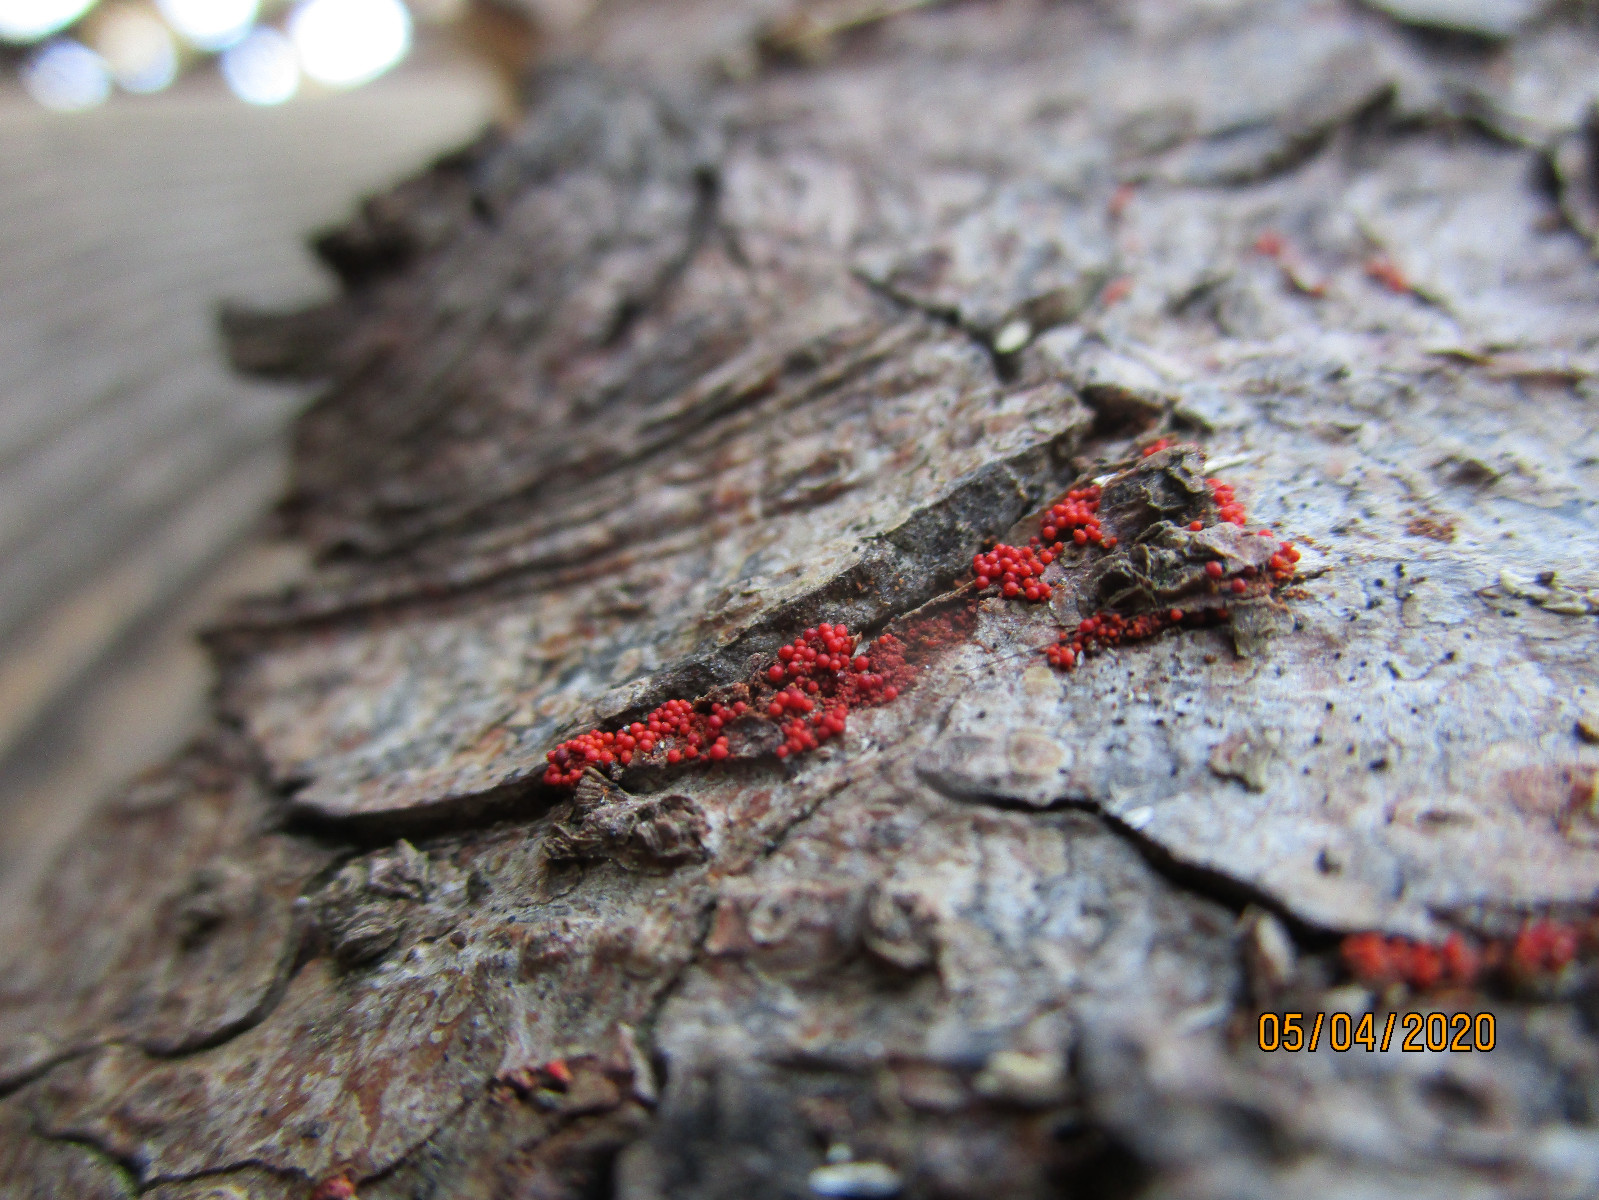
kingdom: Fungi
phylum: Ascomycota
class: Sordariomycetes
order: Hypocreales
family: Nectriaceae
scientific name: Nectriaceae
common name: cinnobersvampfamilien
